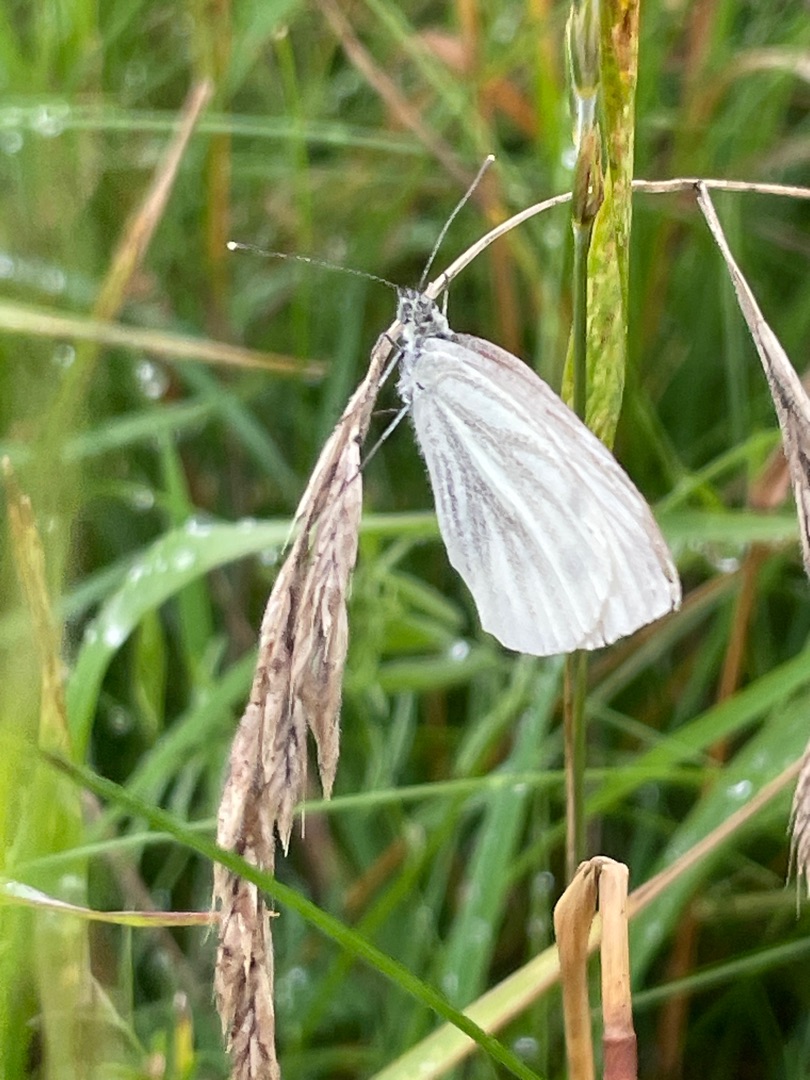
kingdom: Animalia
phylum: Arthropoda
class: Insecta
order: Lepidoptera
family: Pieridae
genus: Pieris
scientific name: Pieris napi
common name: Grønåret kålsommerfugl
